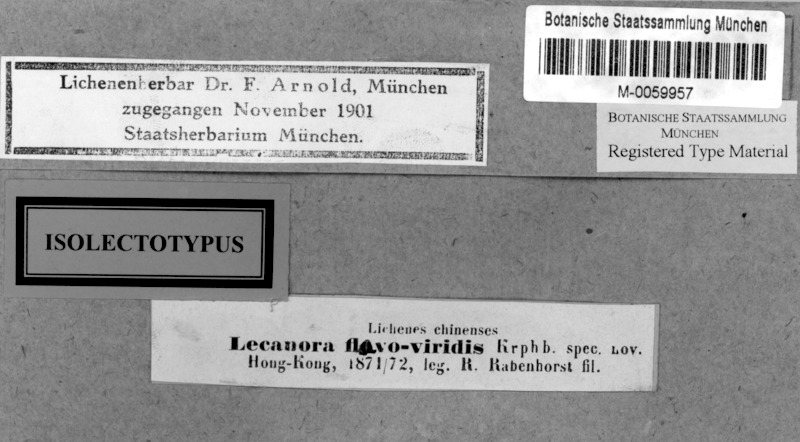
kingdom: Fungi
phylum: Ascomycota
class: Lecanoromycetes
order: Lecanorales
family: Lecanoraceae
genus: Lecanora
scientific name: Lecanora flavoviridis
